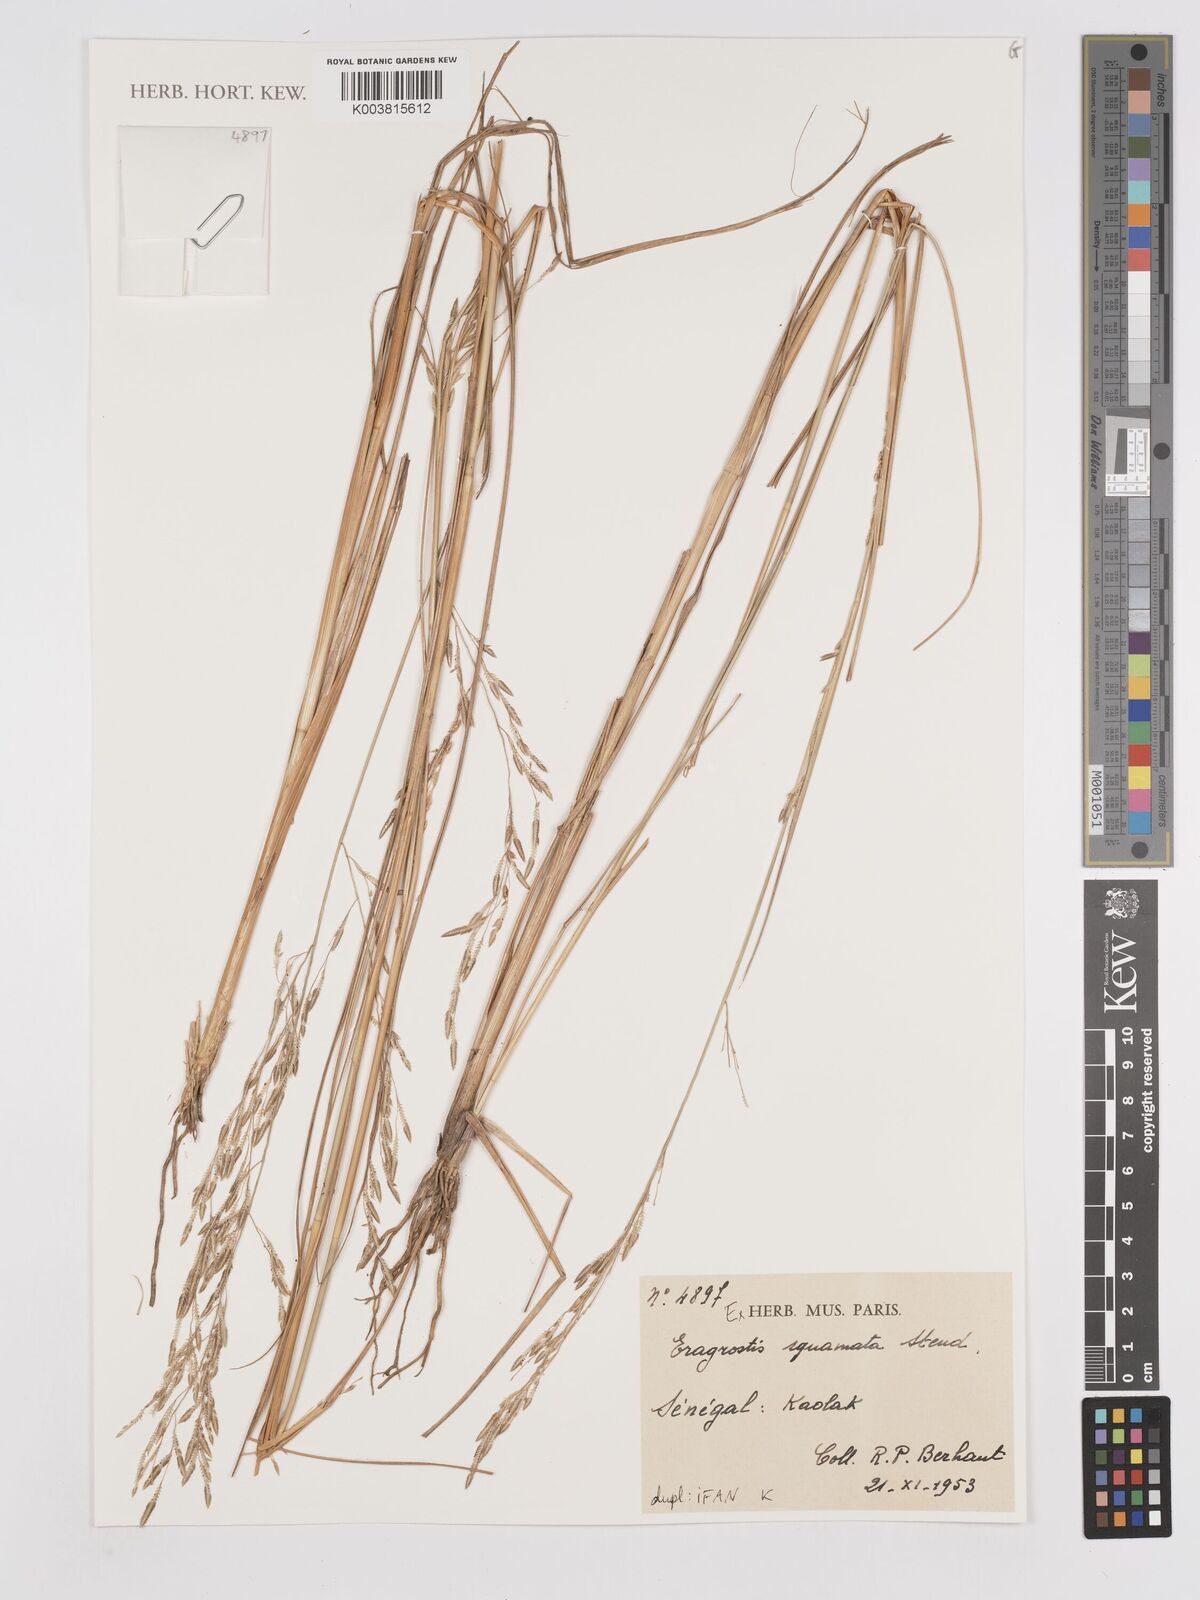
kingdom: Plantae
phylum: Tracheophyta
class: Liliopsida
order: Poales
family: Poaceae
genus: Eragrostis
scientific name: Eragrostis squamata
